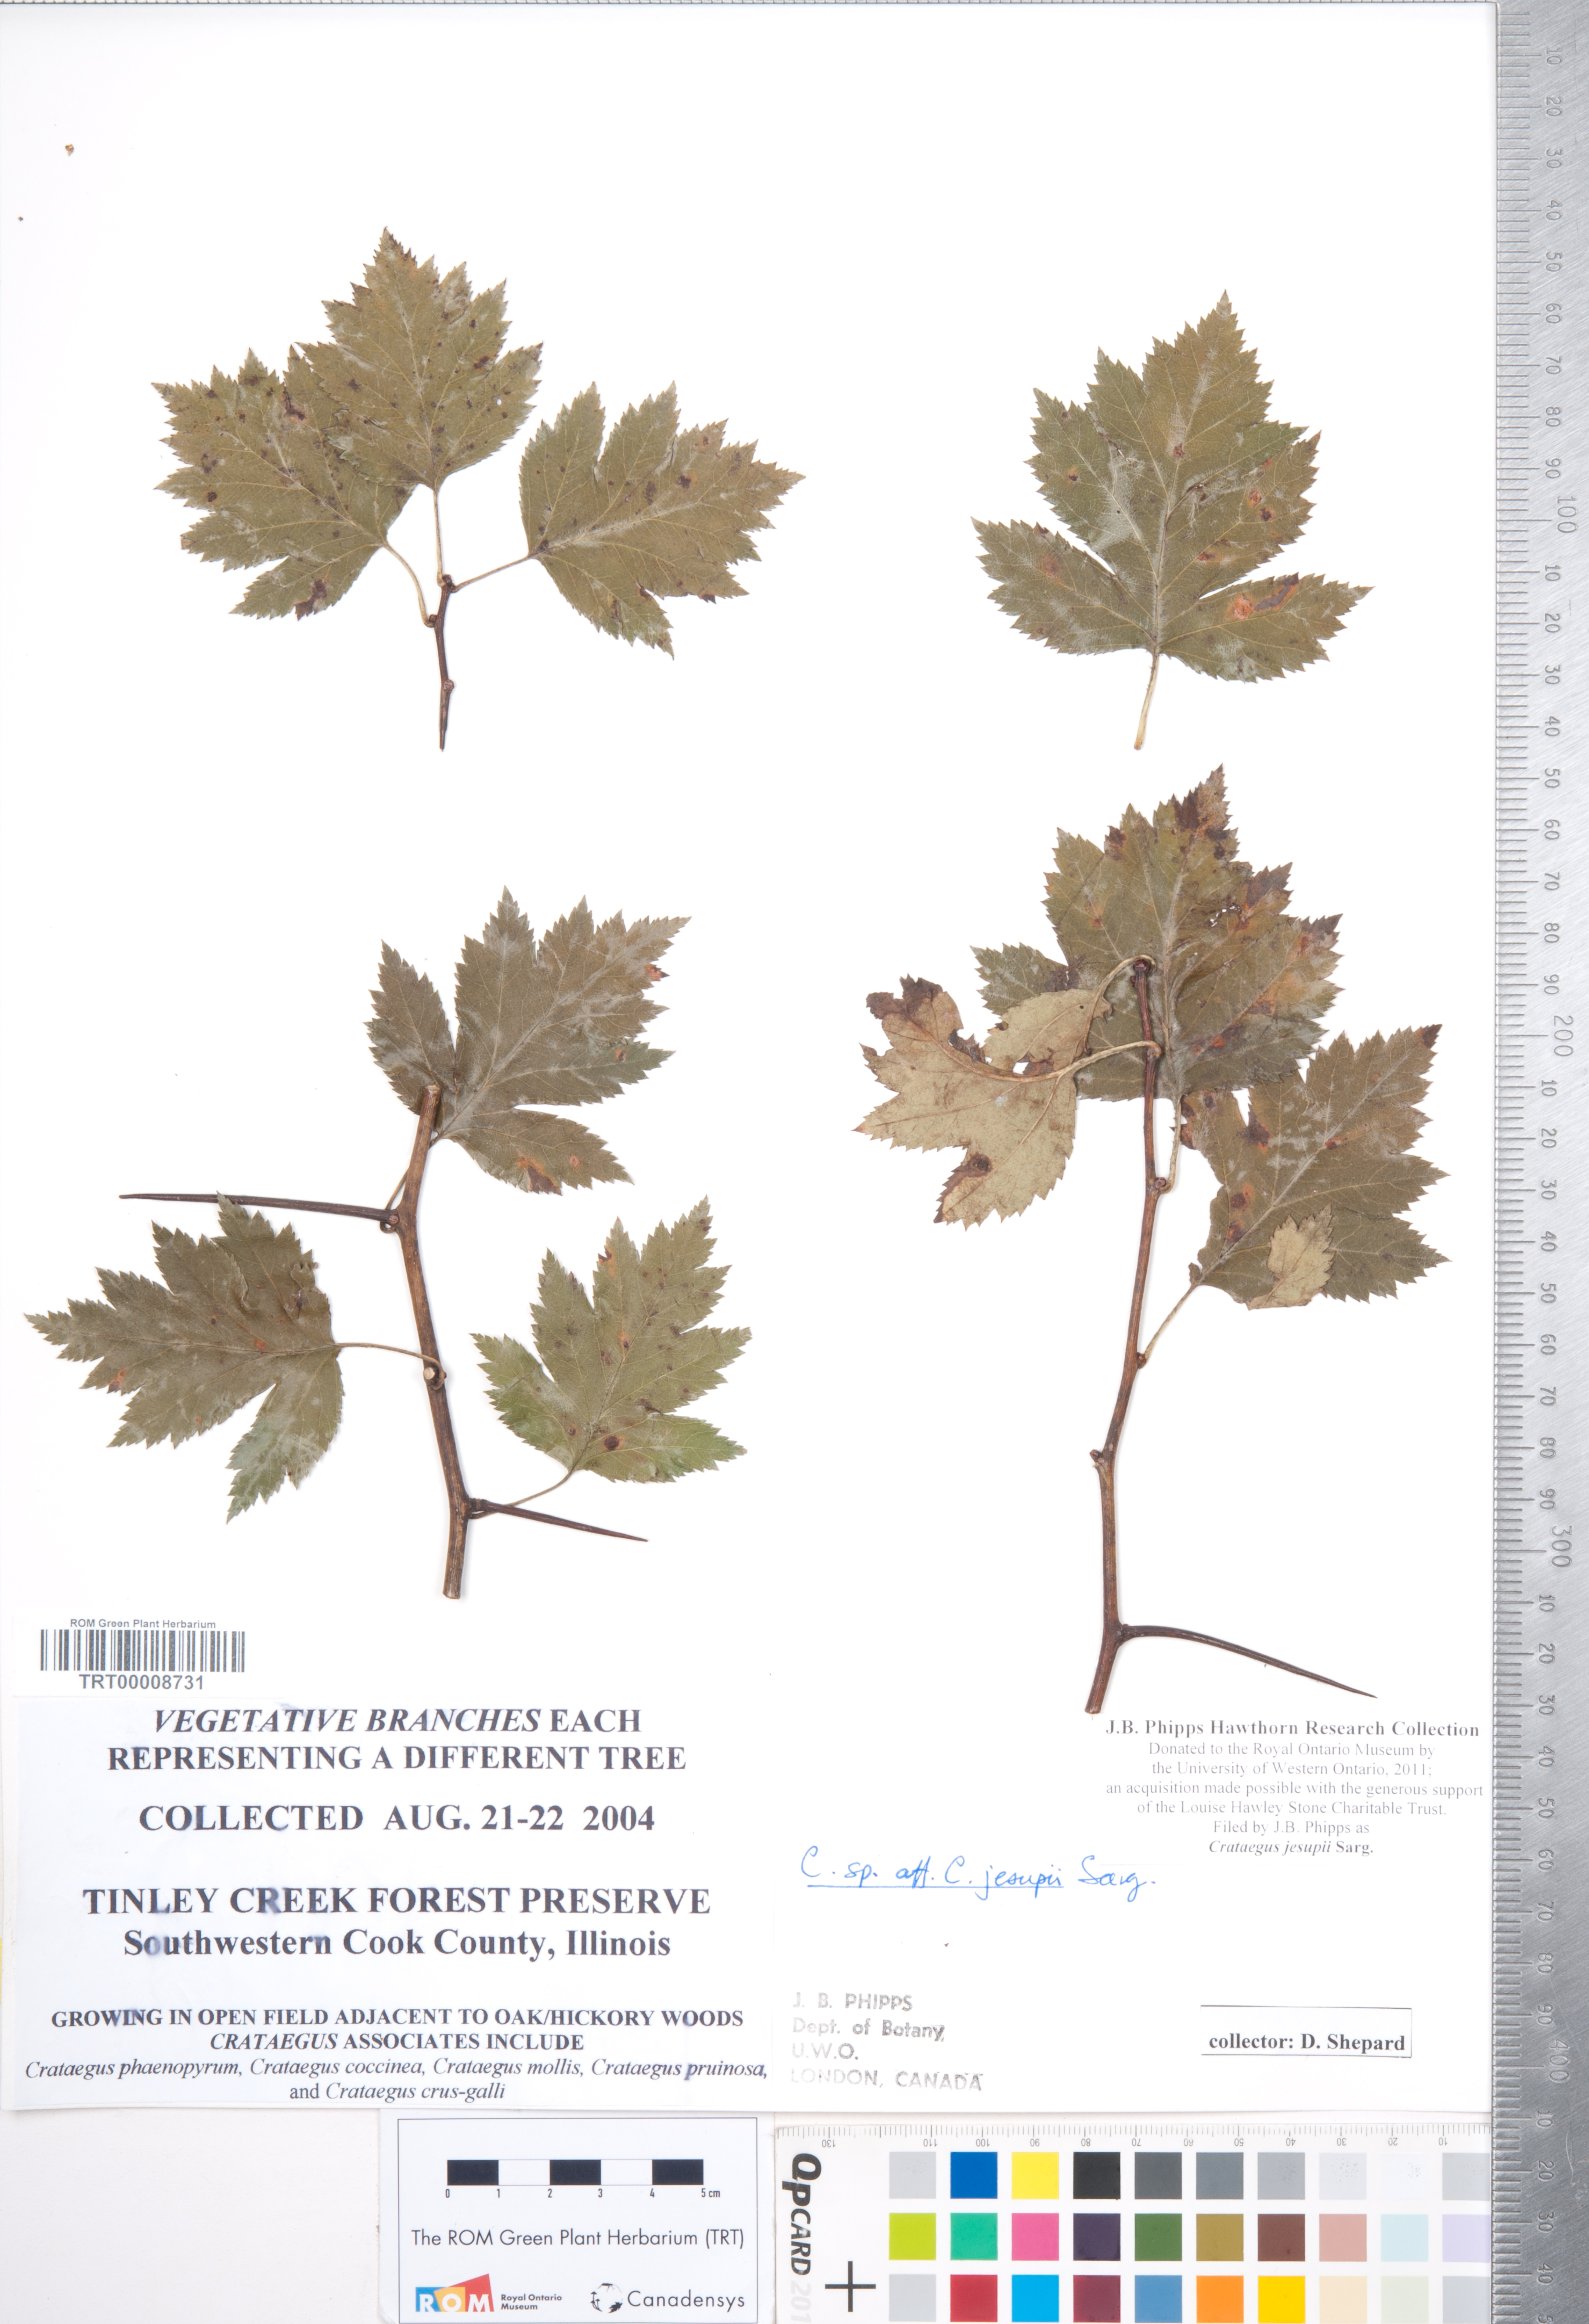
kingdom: Plantae
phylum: Tracheophyta
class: Magnoliopsida
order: Rosales
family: Rosaceae
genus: Crataegus
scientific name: Crataegus jesupii
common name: Jesup's hawthorn
